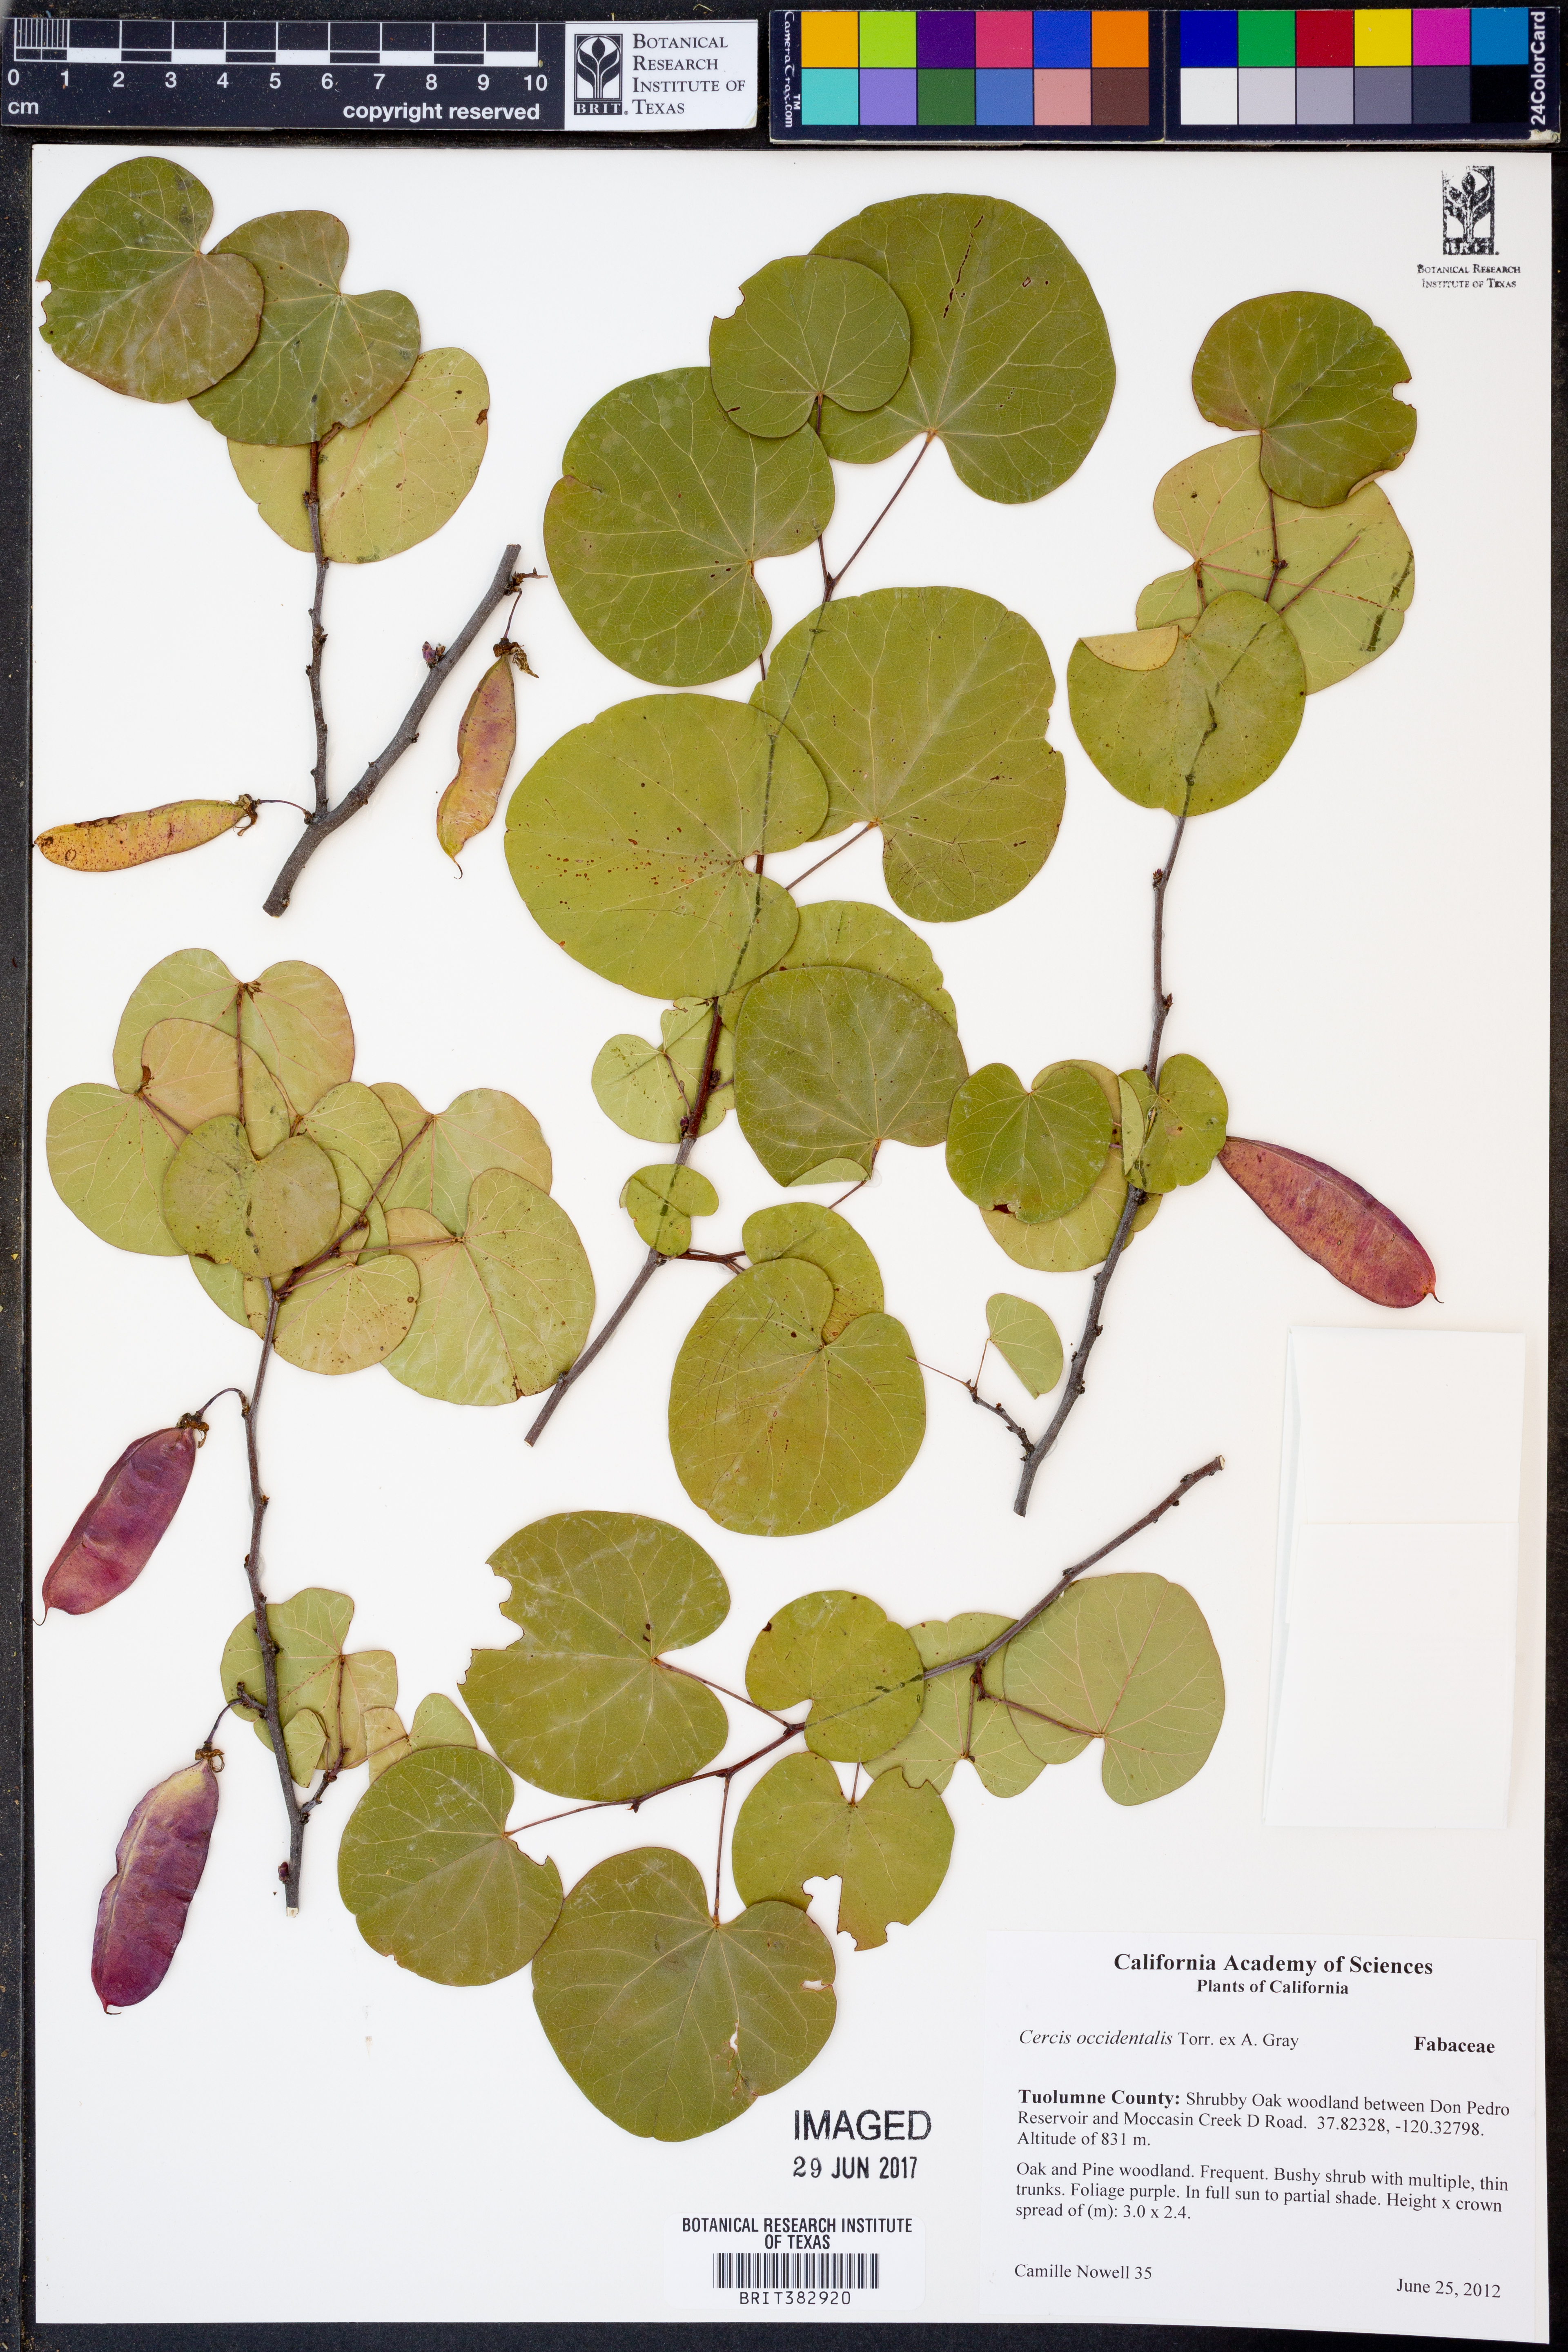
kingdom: Plantae
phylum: Tracheophyta
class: Magnoliopsida
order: Fabales
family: Fabaceae
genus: Cercis
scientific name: Cercis occidentalis
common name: California redbud
